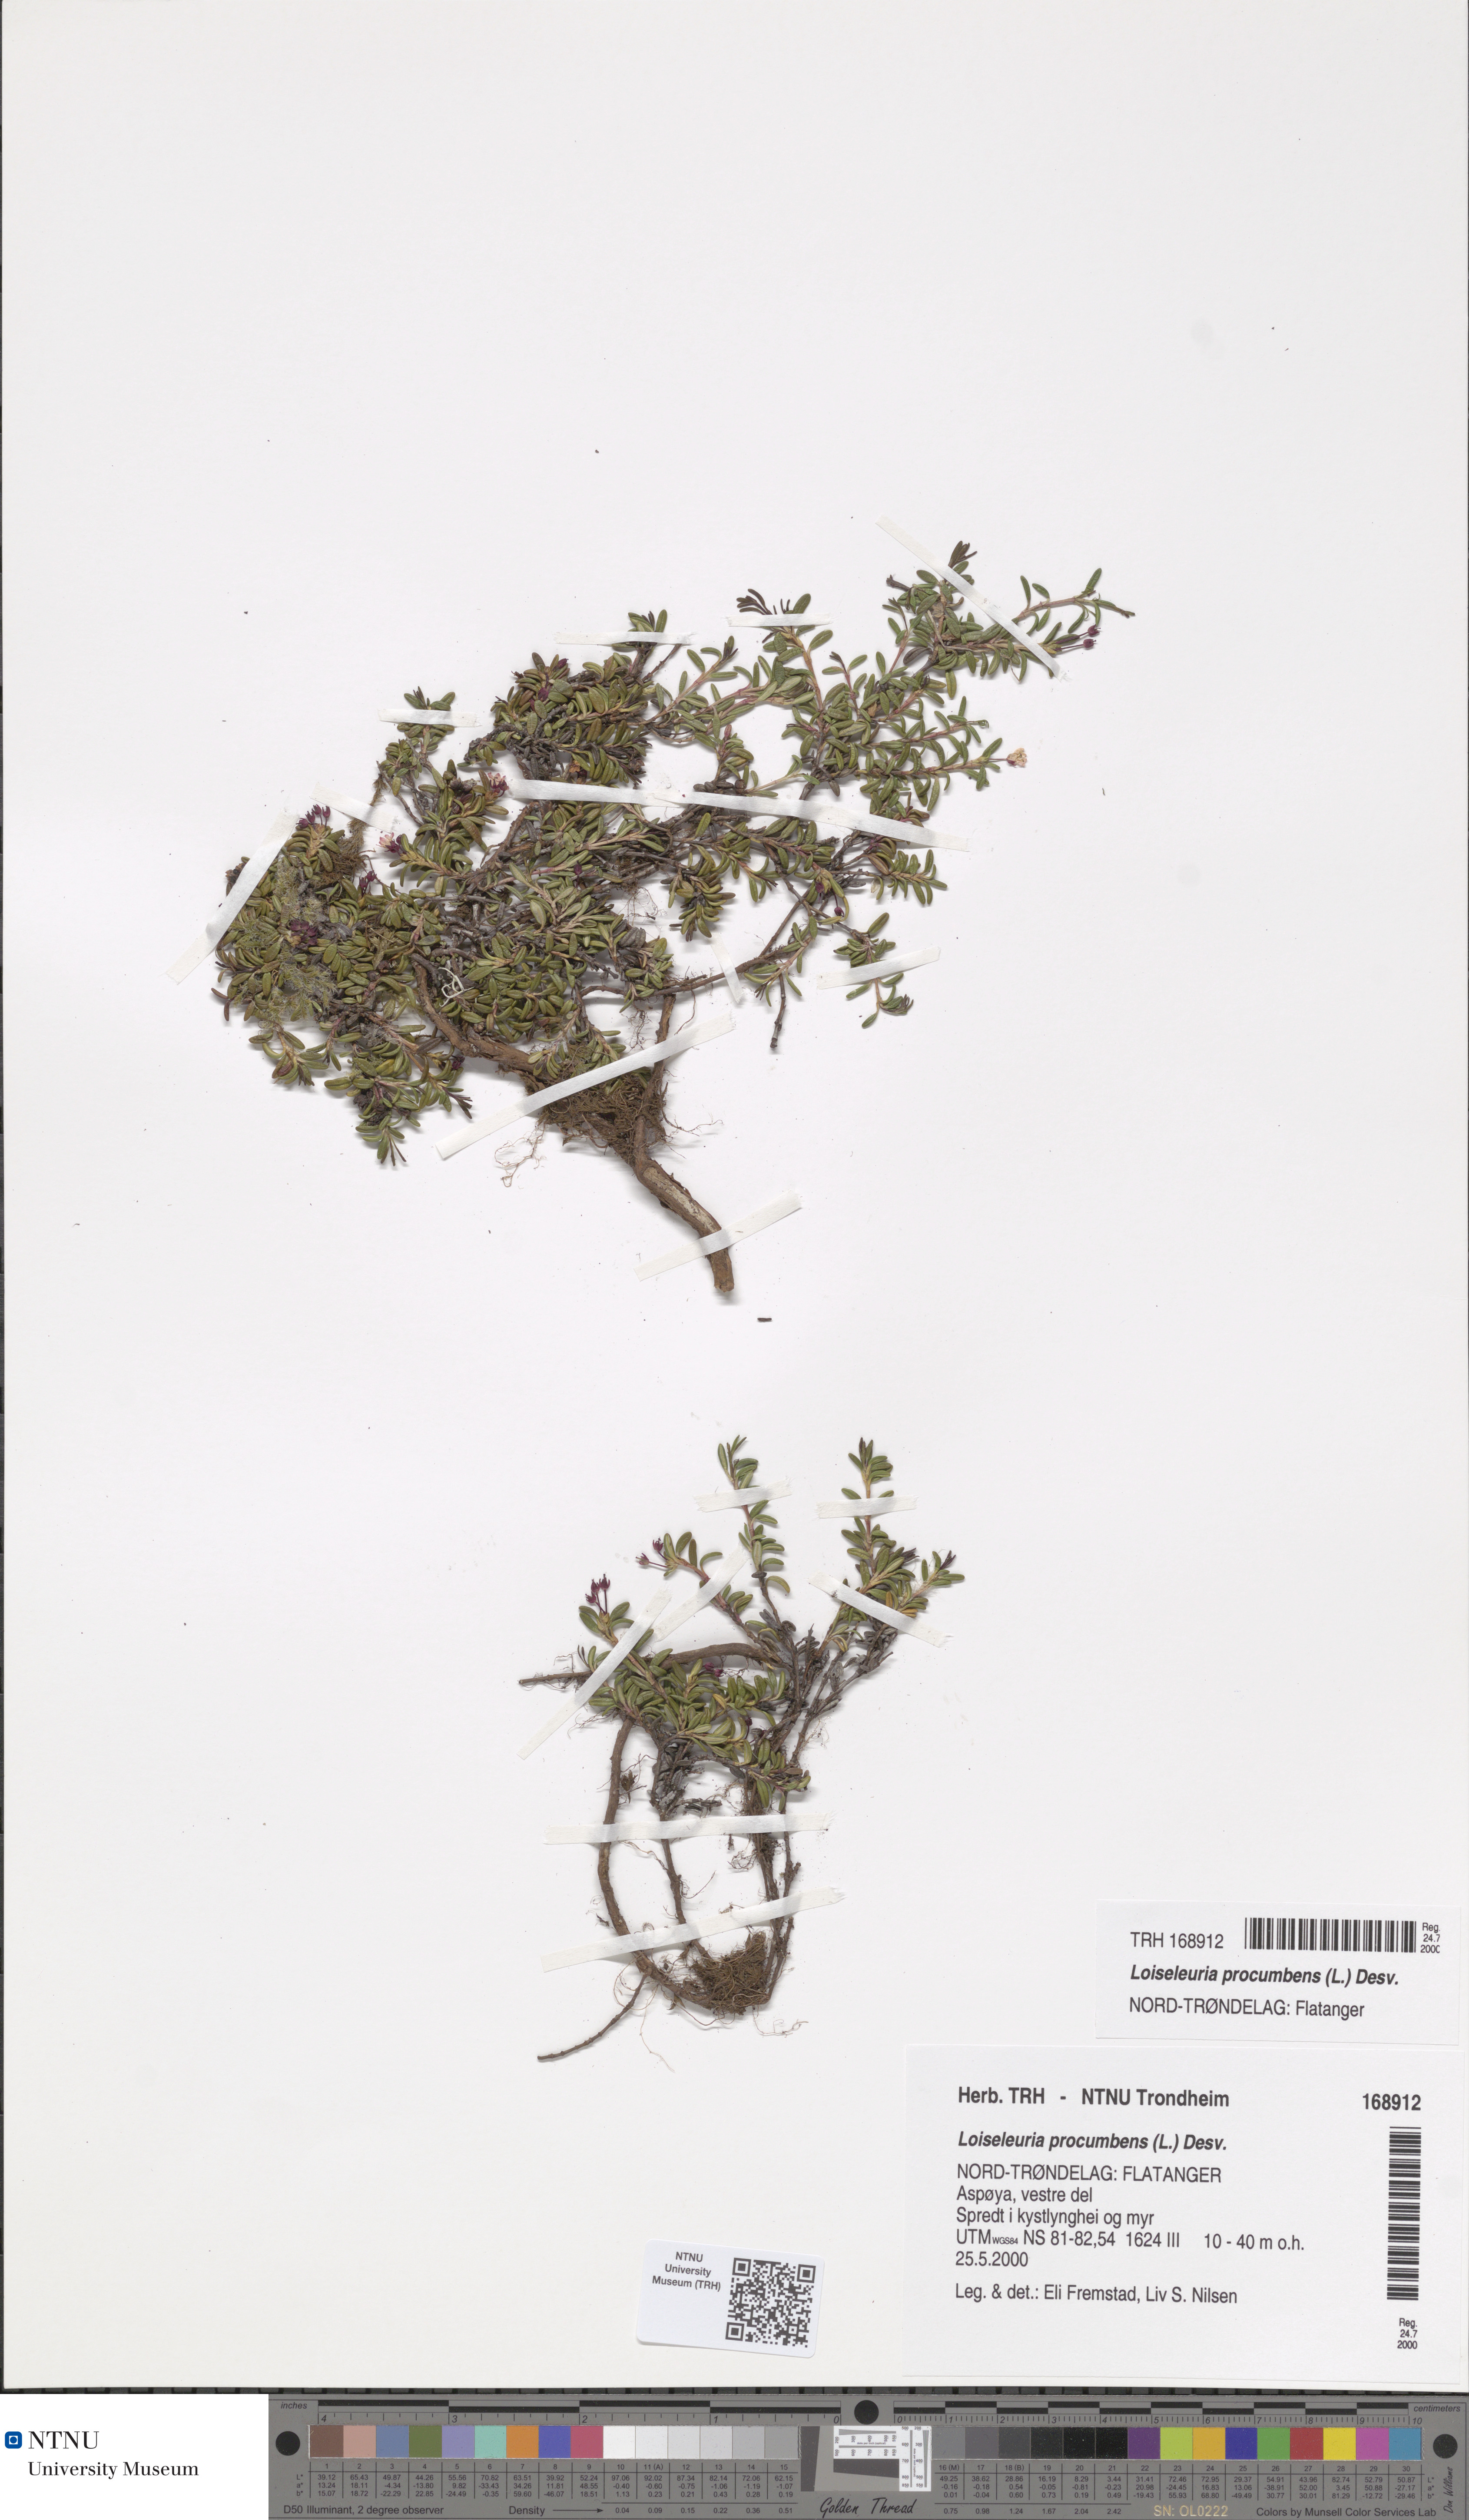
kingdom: Plantae
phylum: Tracheophyta
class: Magnoliopsida
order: Ericales
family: Ericaceae
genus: Kalmia
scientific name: Kalmia procumbens
